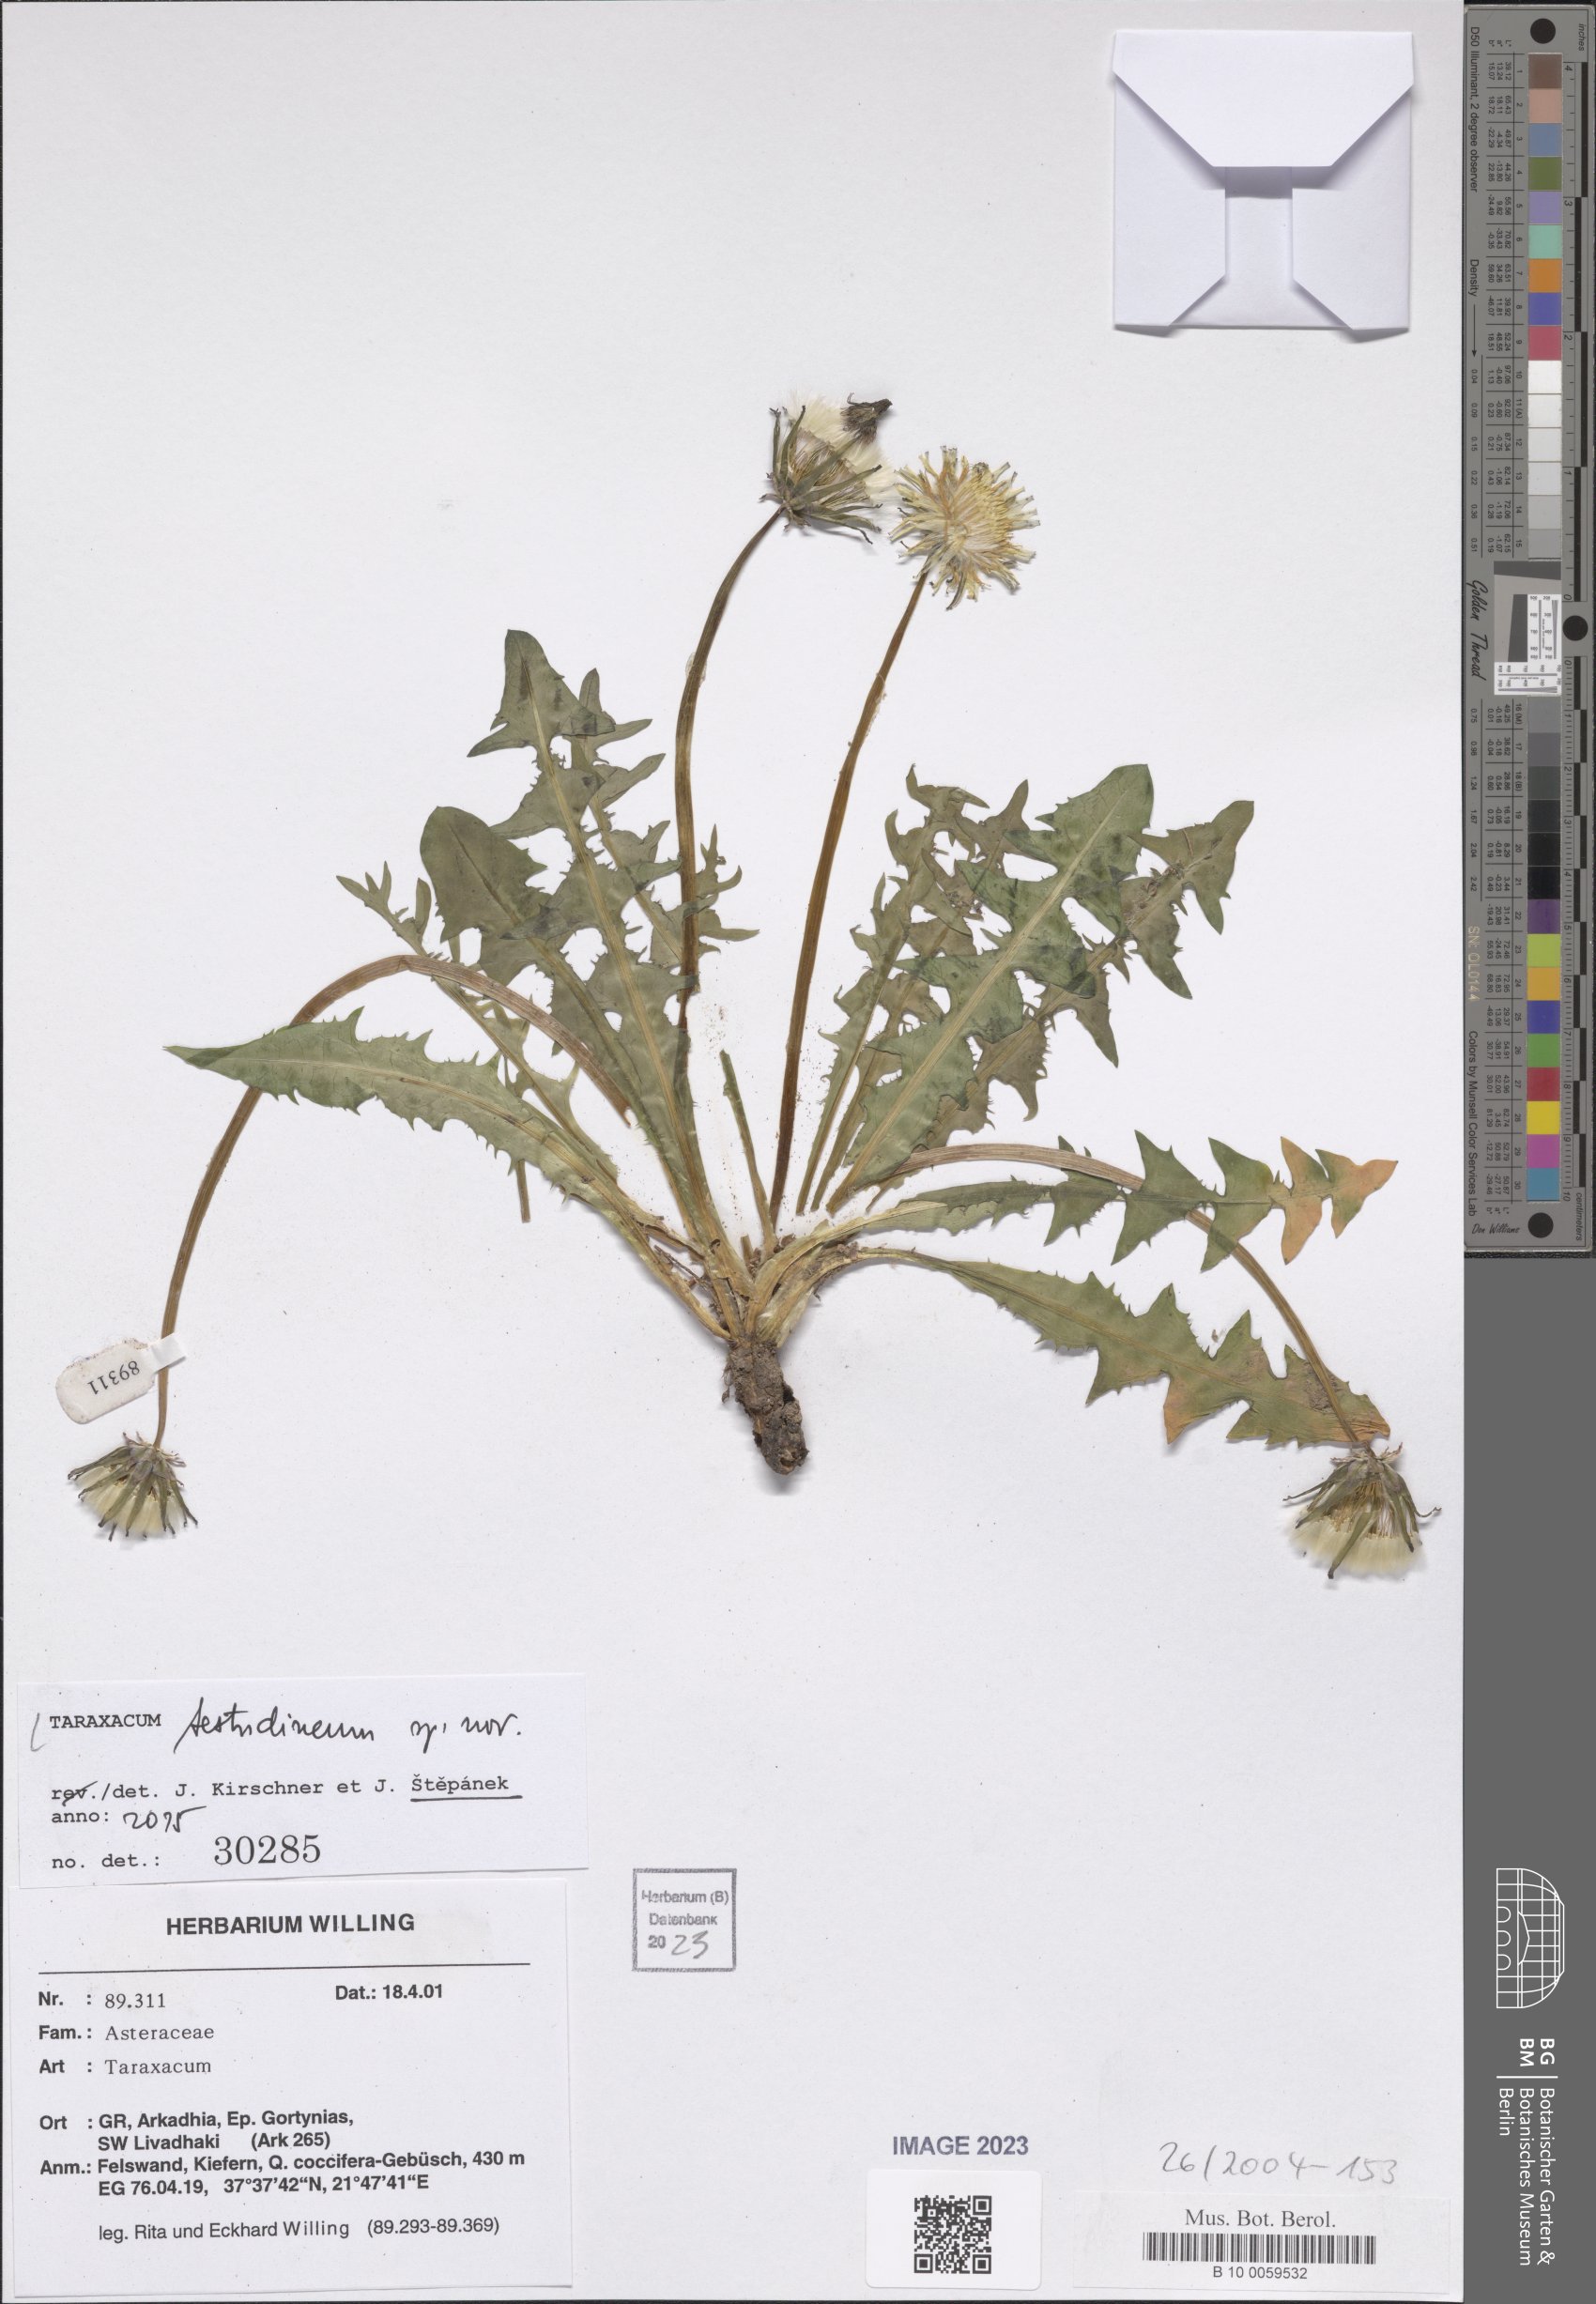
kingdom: Plantae
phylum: Tracheophyta
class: Magnoliopsida
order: Asterales
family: Asteraceae
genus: Taraxacum
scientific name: Taraxacum
